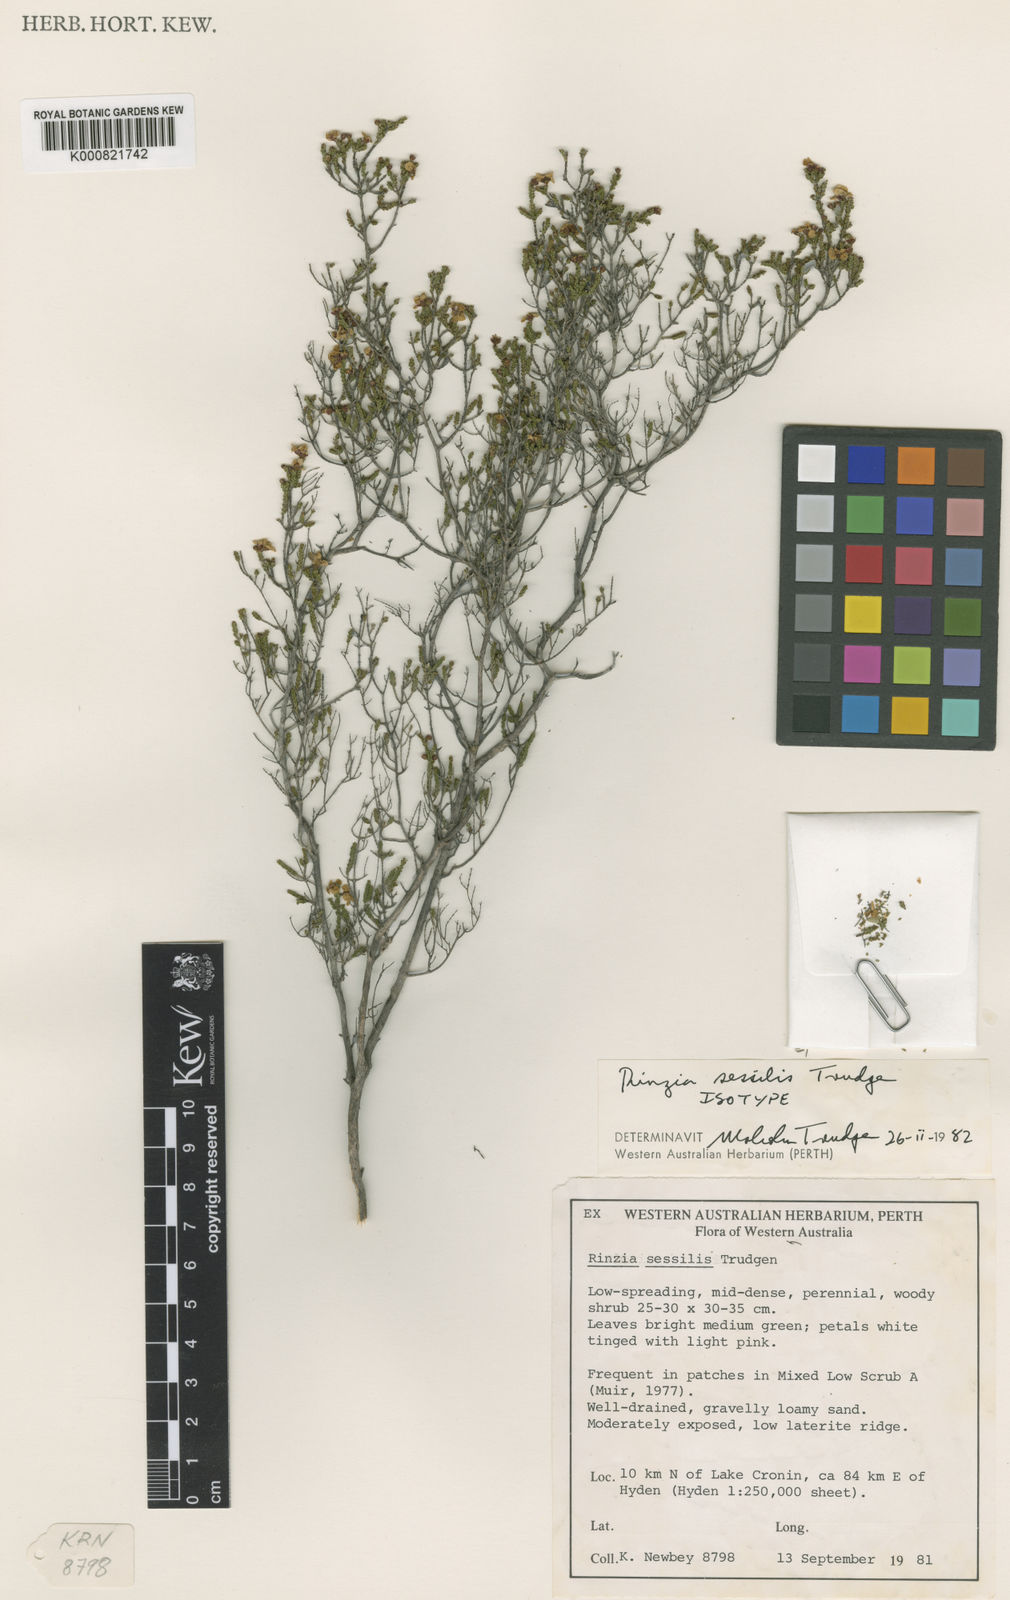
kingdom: Plantae
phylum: Tracheophyta
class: Magnoliopsida
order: Myrtales
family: Myrtaceae
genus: Baeckea
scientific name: Baeckea
